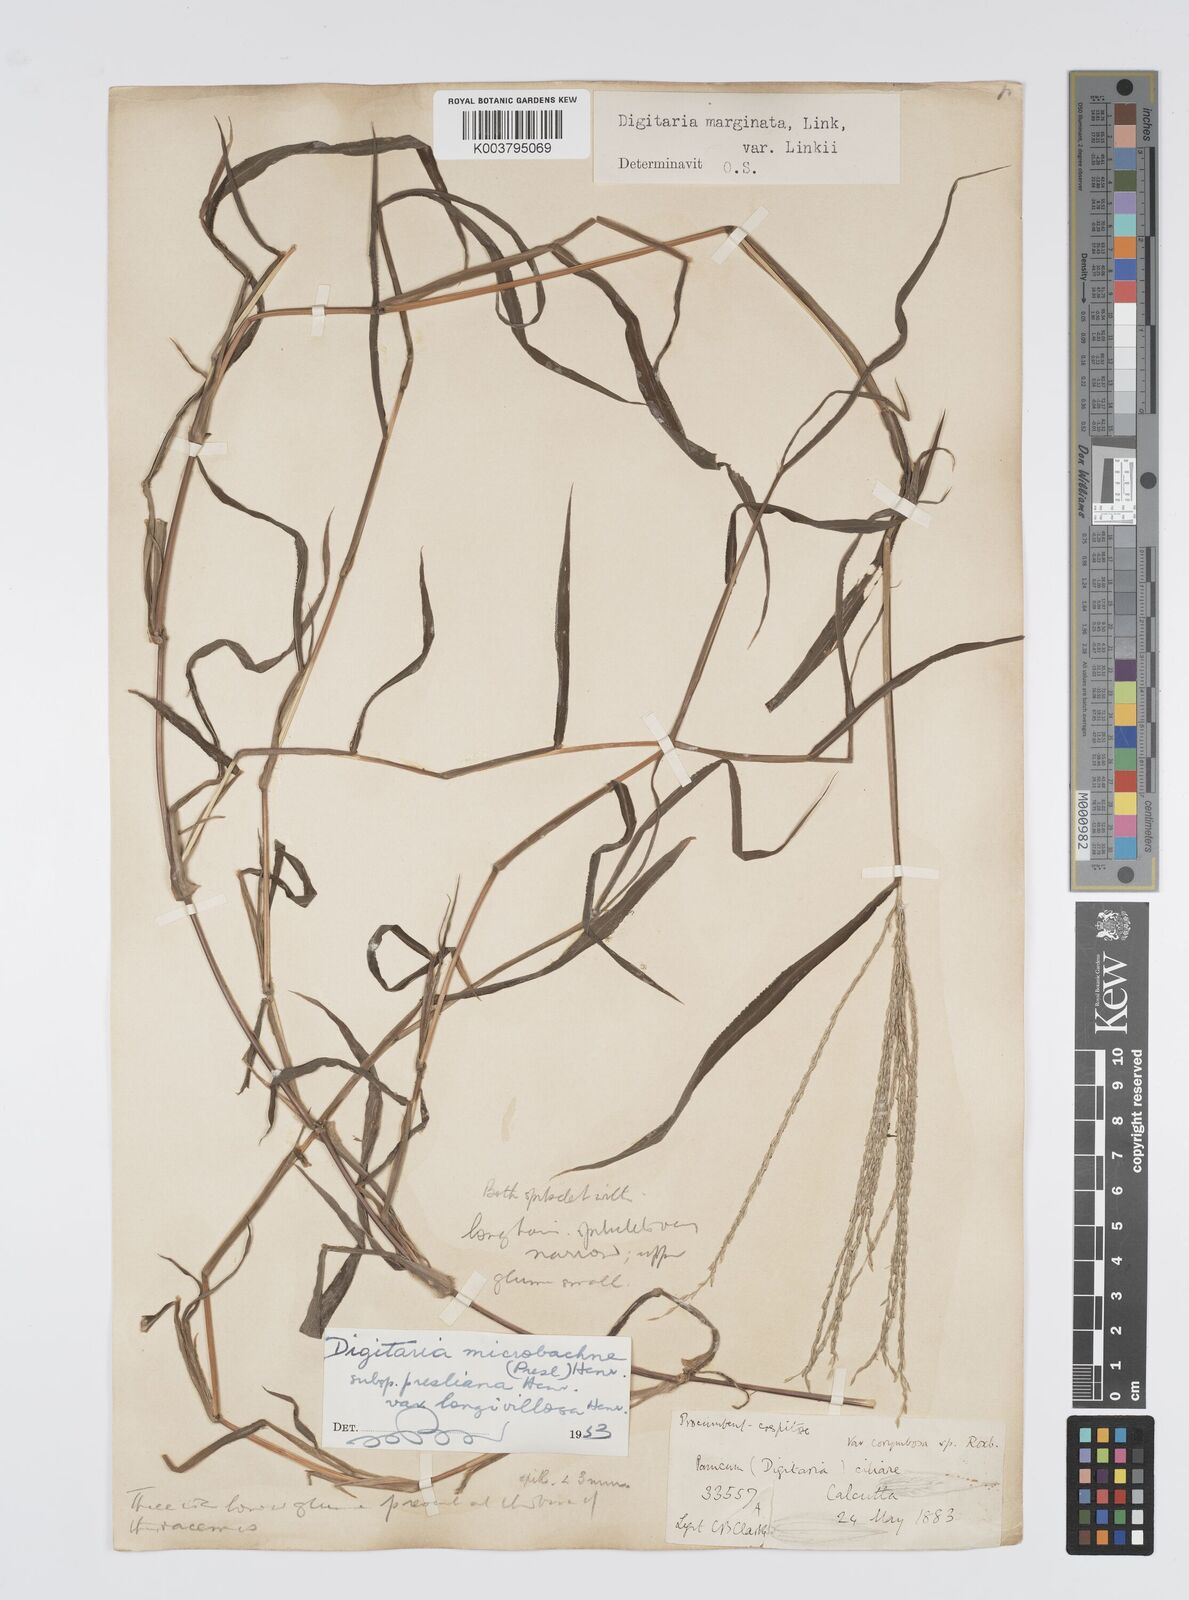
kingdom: Plantae
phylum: Tracheophyta
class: Liliopsida
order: Poales
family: Poaceae
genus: Digitaria
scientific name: Digitaria setigera
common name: East indian crabgrass
